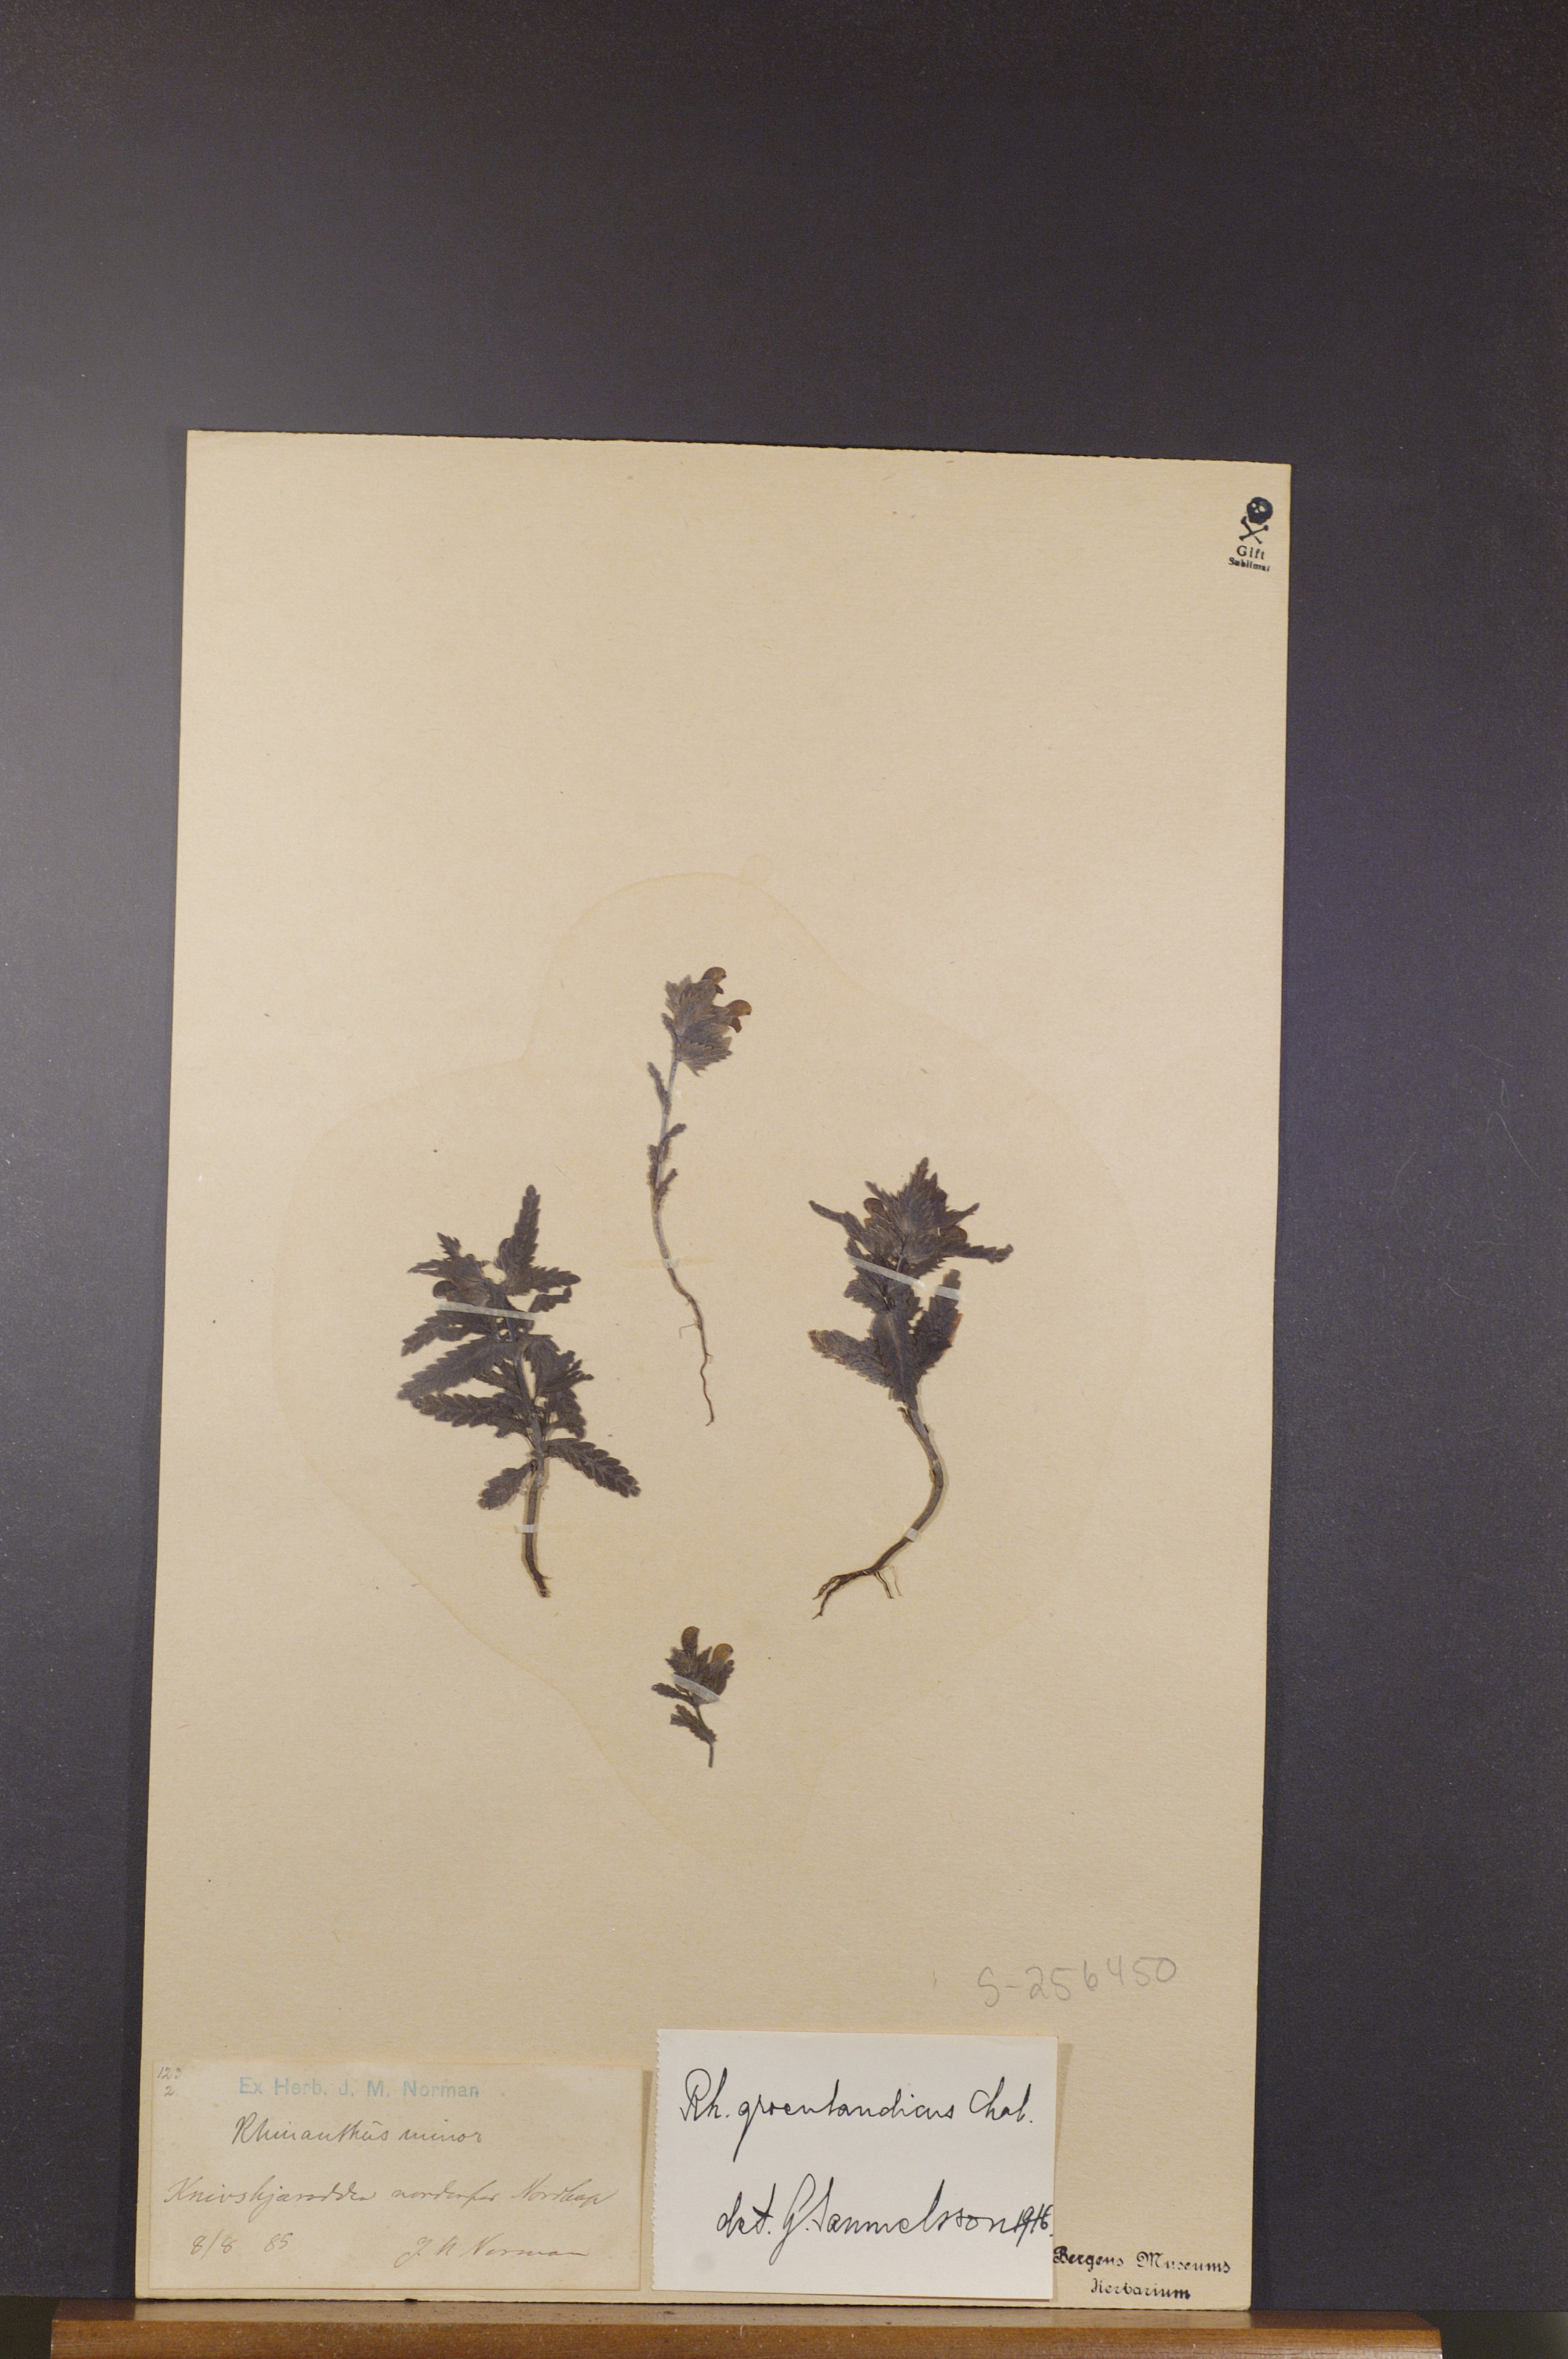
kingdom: Plantae
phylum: Tracheophyta
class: Magnoliopsida
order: Lamiales
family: Orobanchaceae
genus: Rhinanthus
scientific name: Rhinanthus groenlandicus
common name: Little yellow rattle
